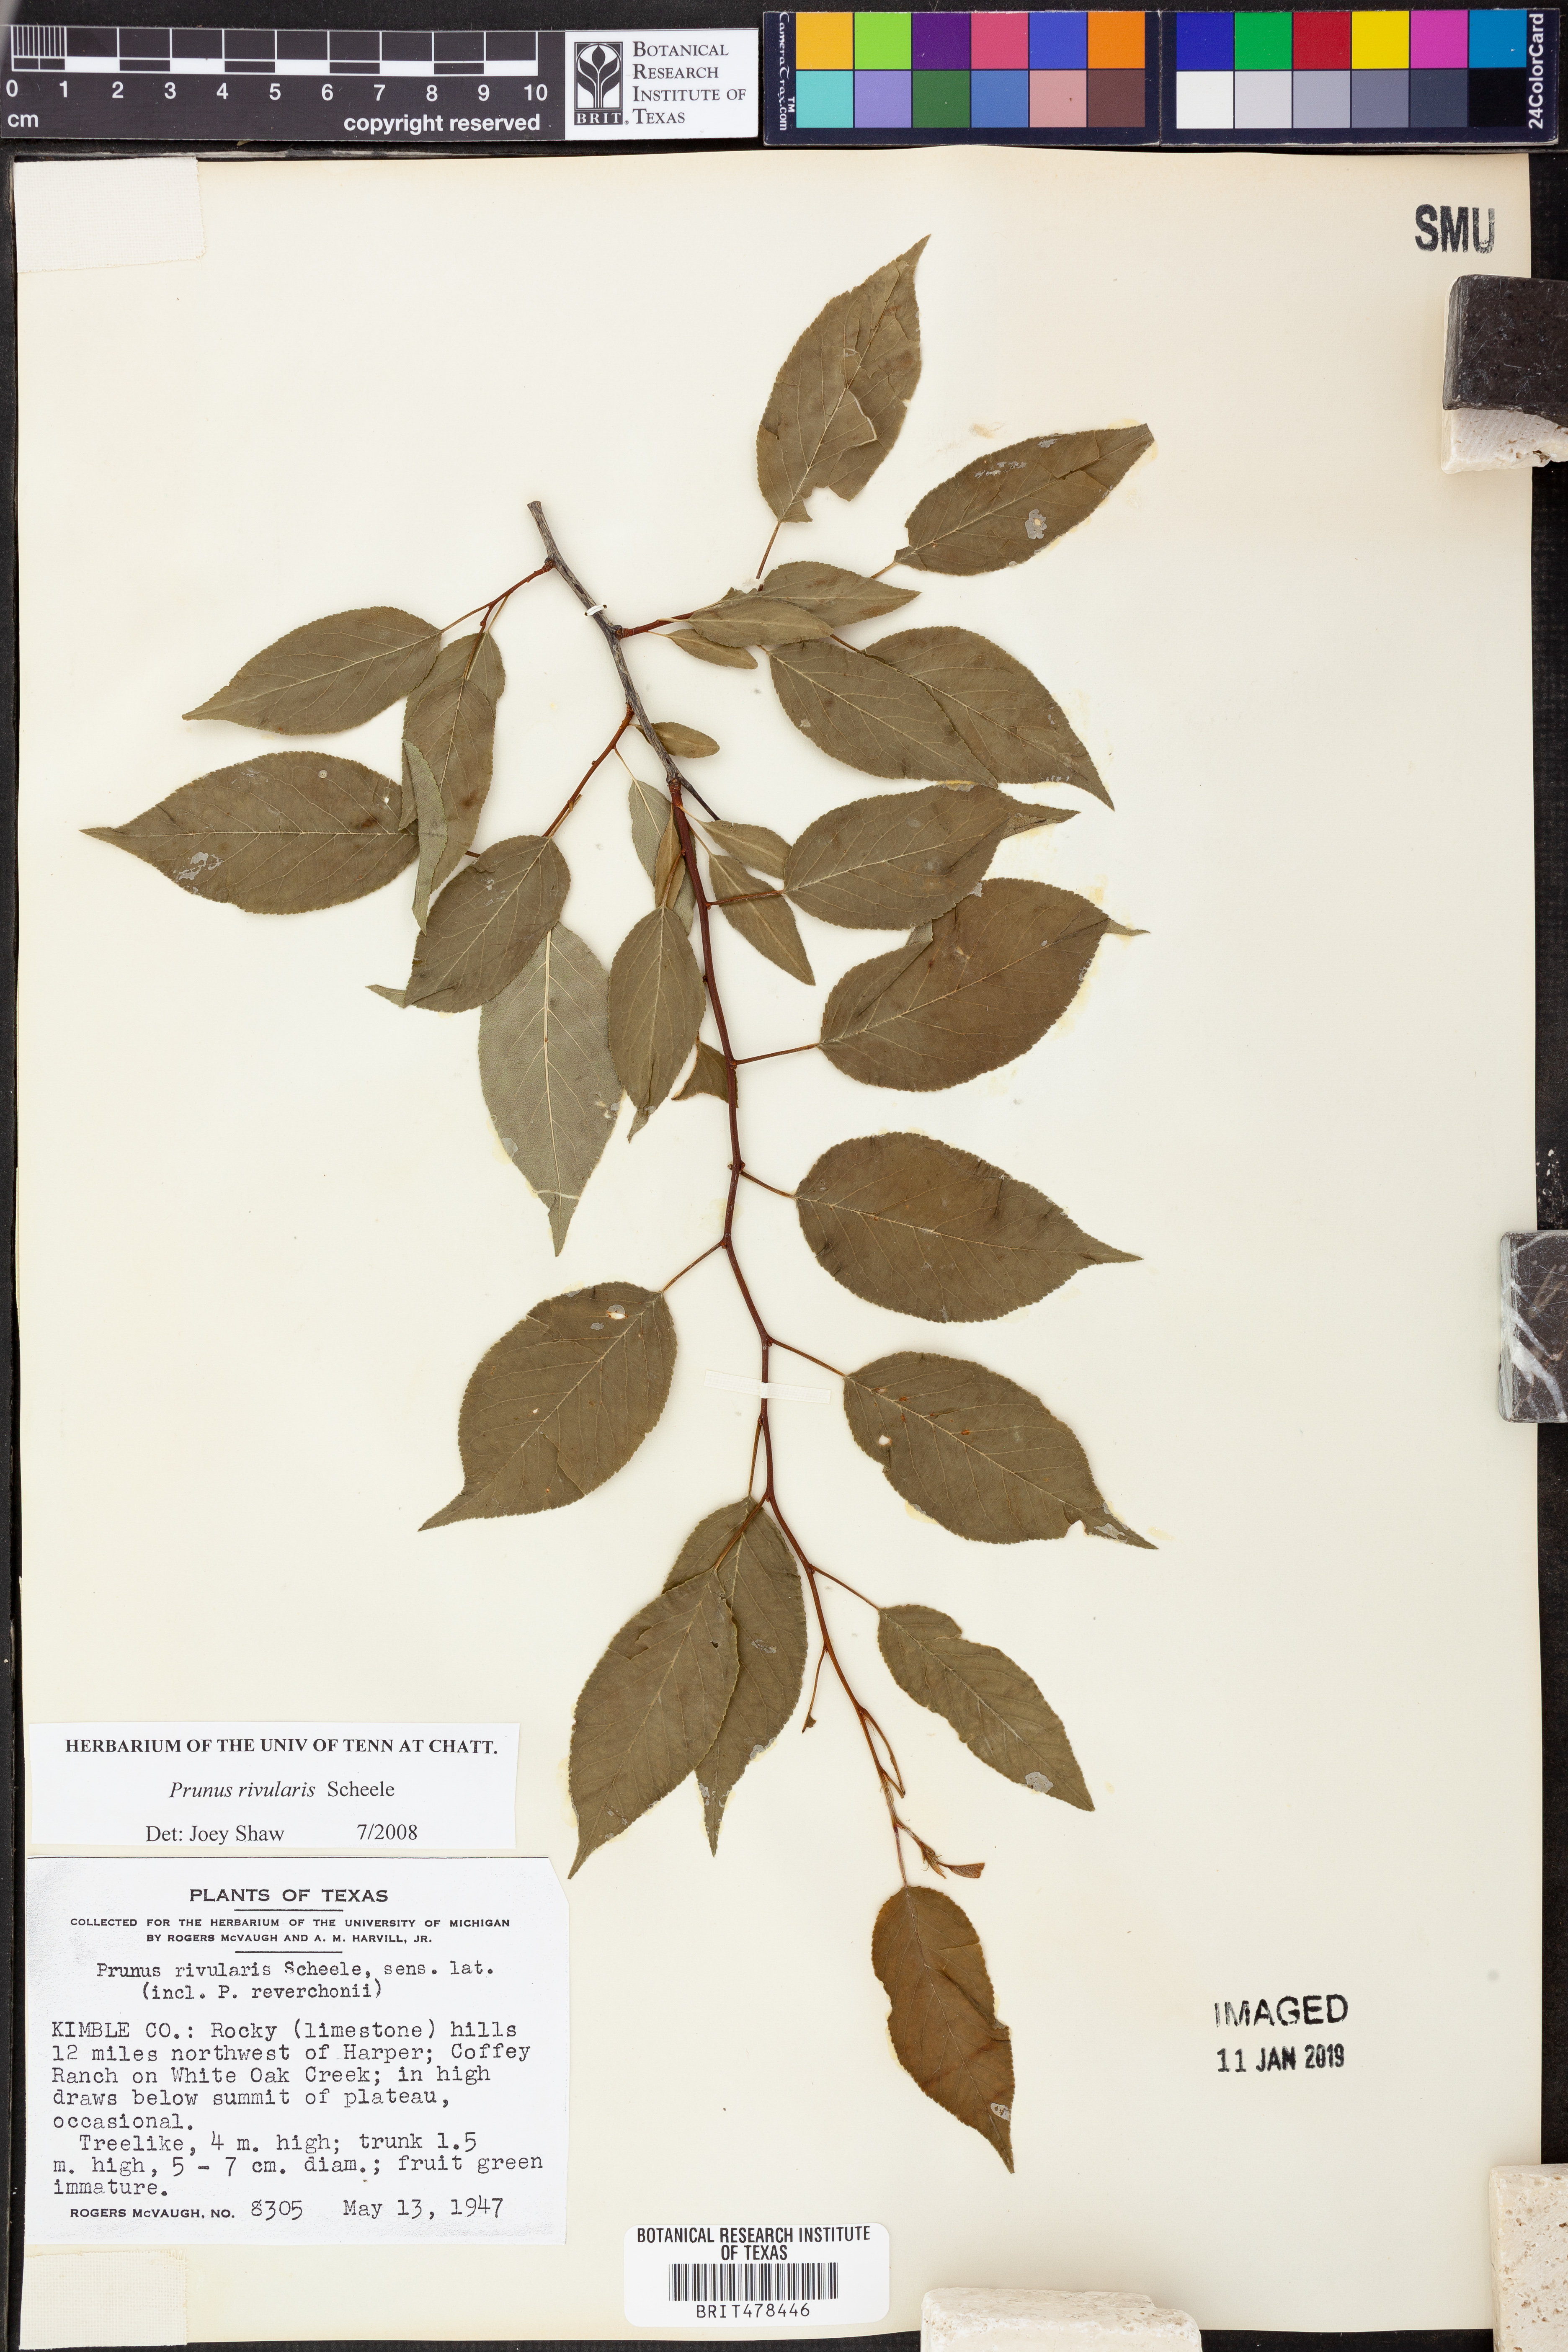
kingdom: Plantae
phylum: Tracheophyta
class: Magnoliopsida
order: Rosales
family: Rosaceae
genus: Prunus
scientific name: Prunus rivularis
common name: Creek plum
